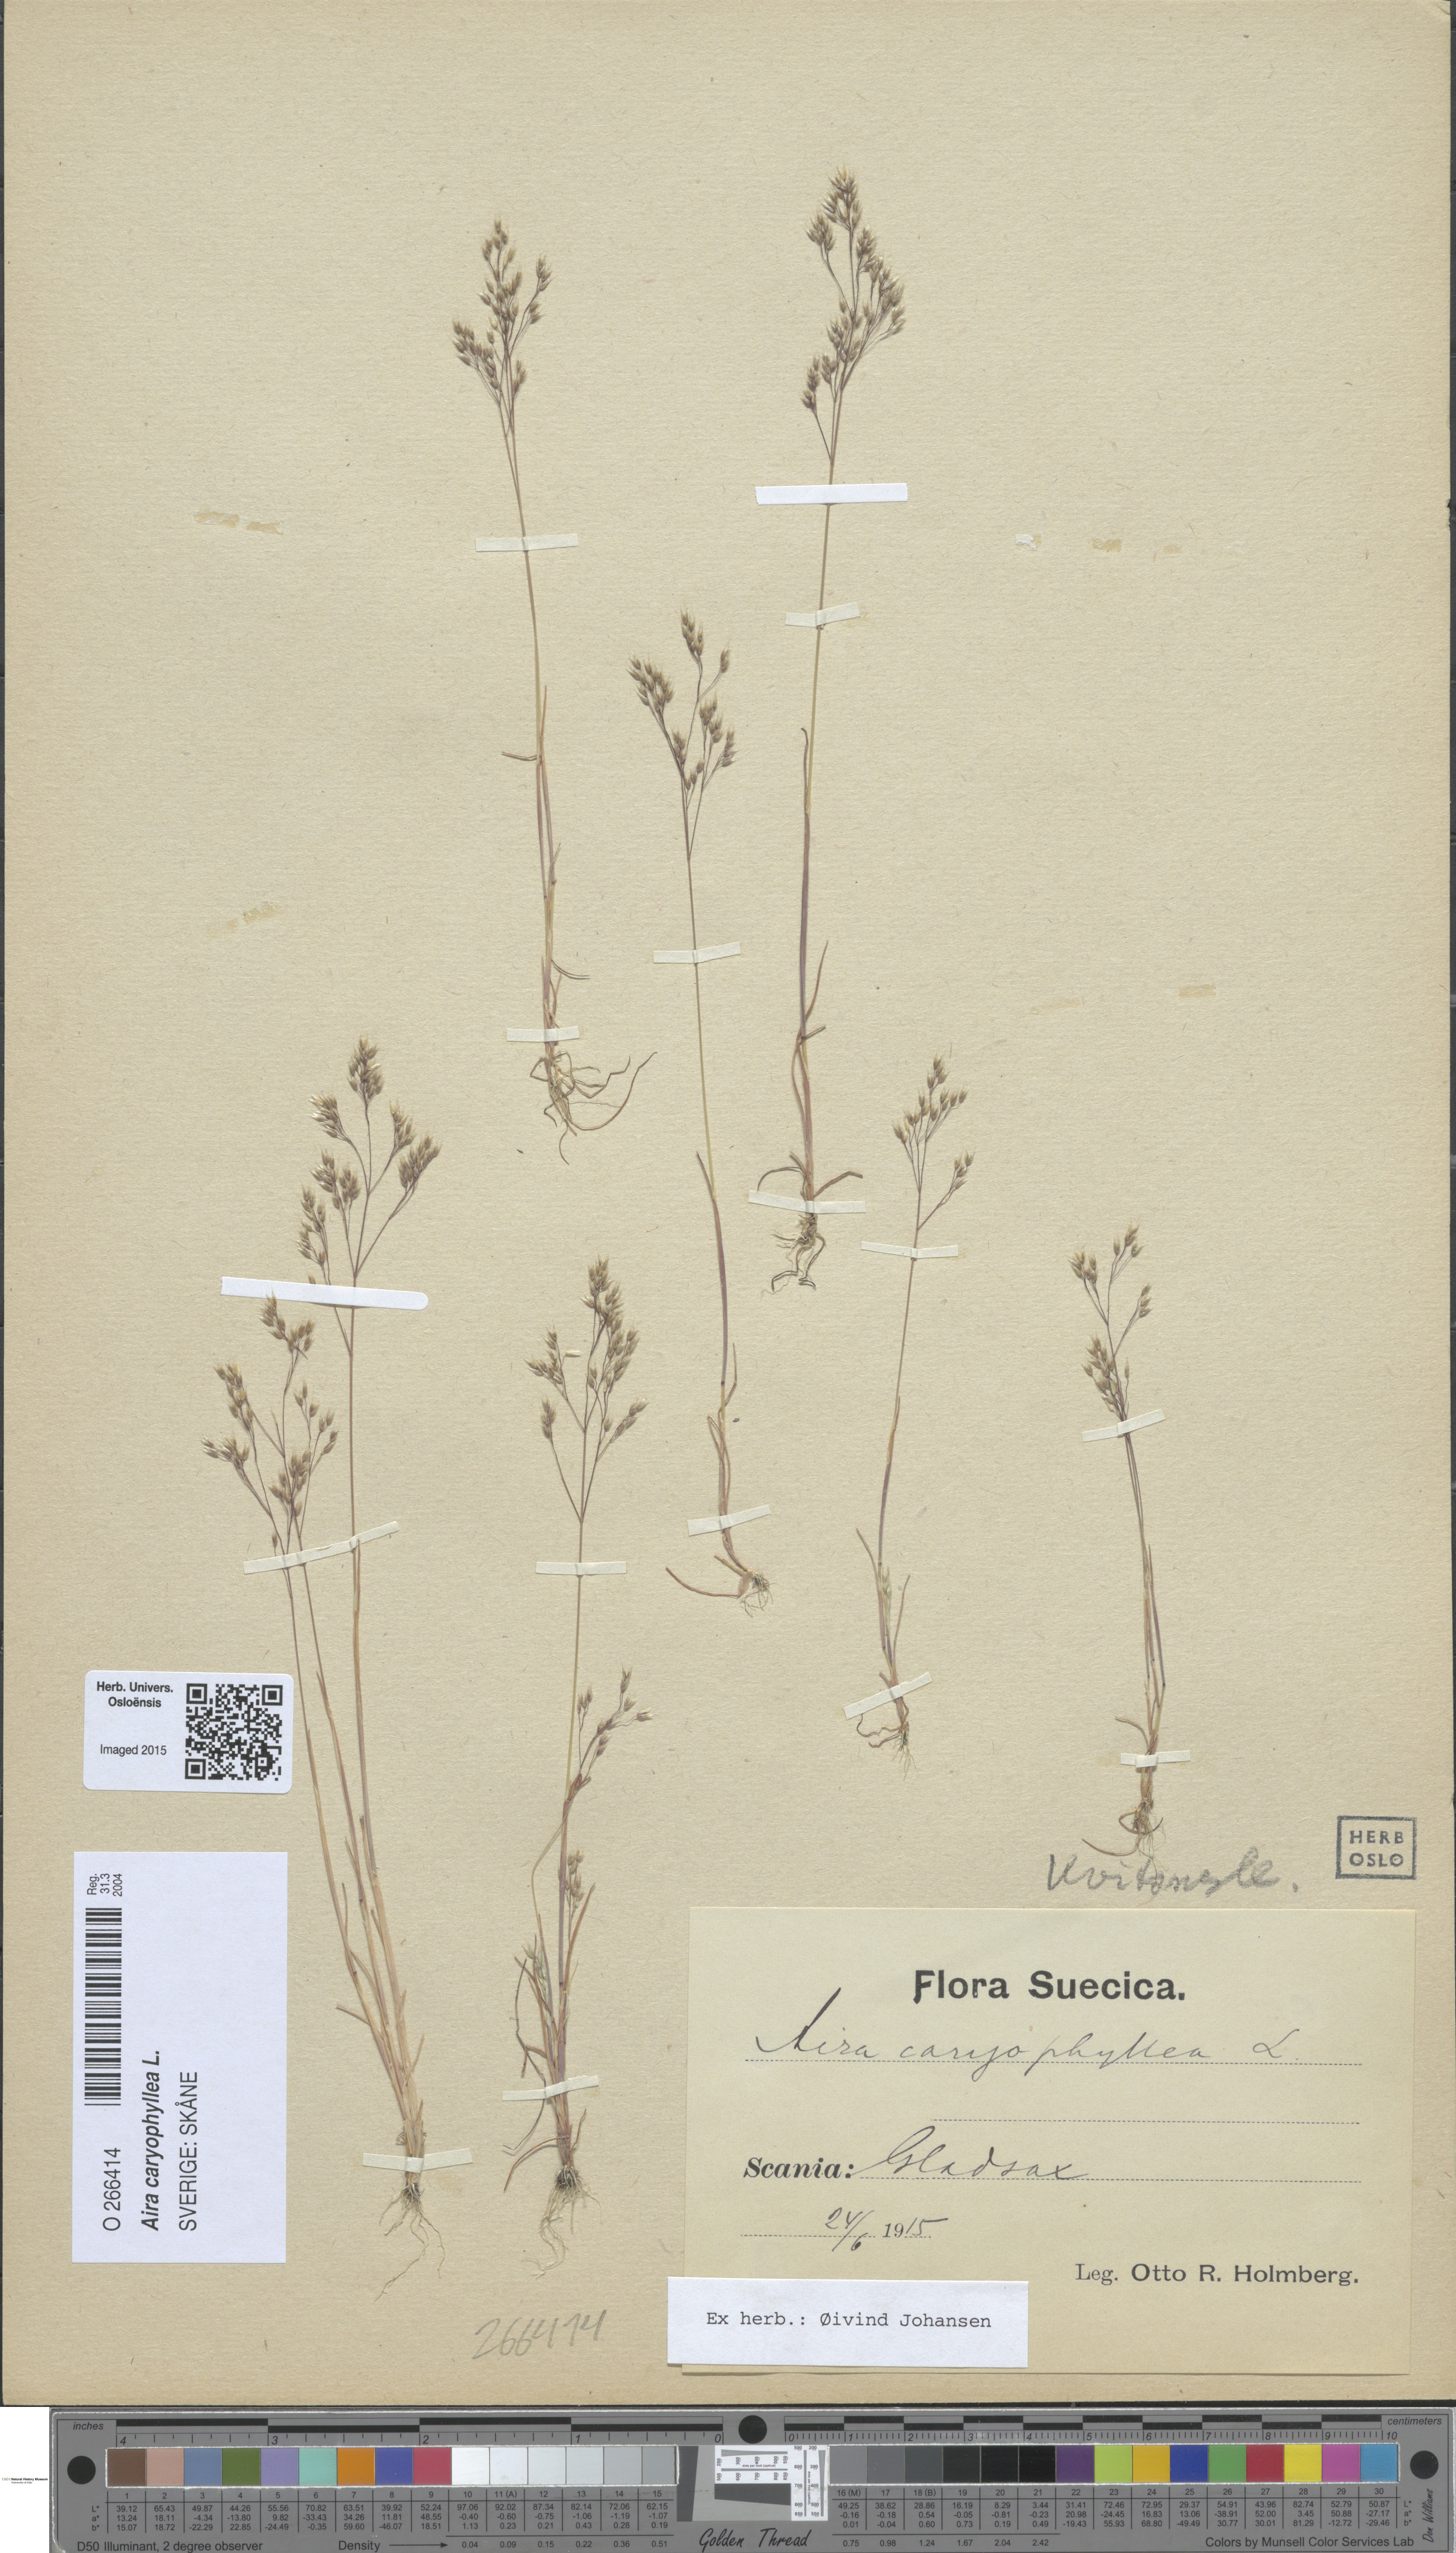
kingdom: Plantae
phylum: Tracheophyta
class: Liliopsida
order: Poales
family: Poaceae
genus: Aira
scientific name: Aira caryophyllea
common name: Silver hairgrass
